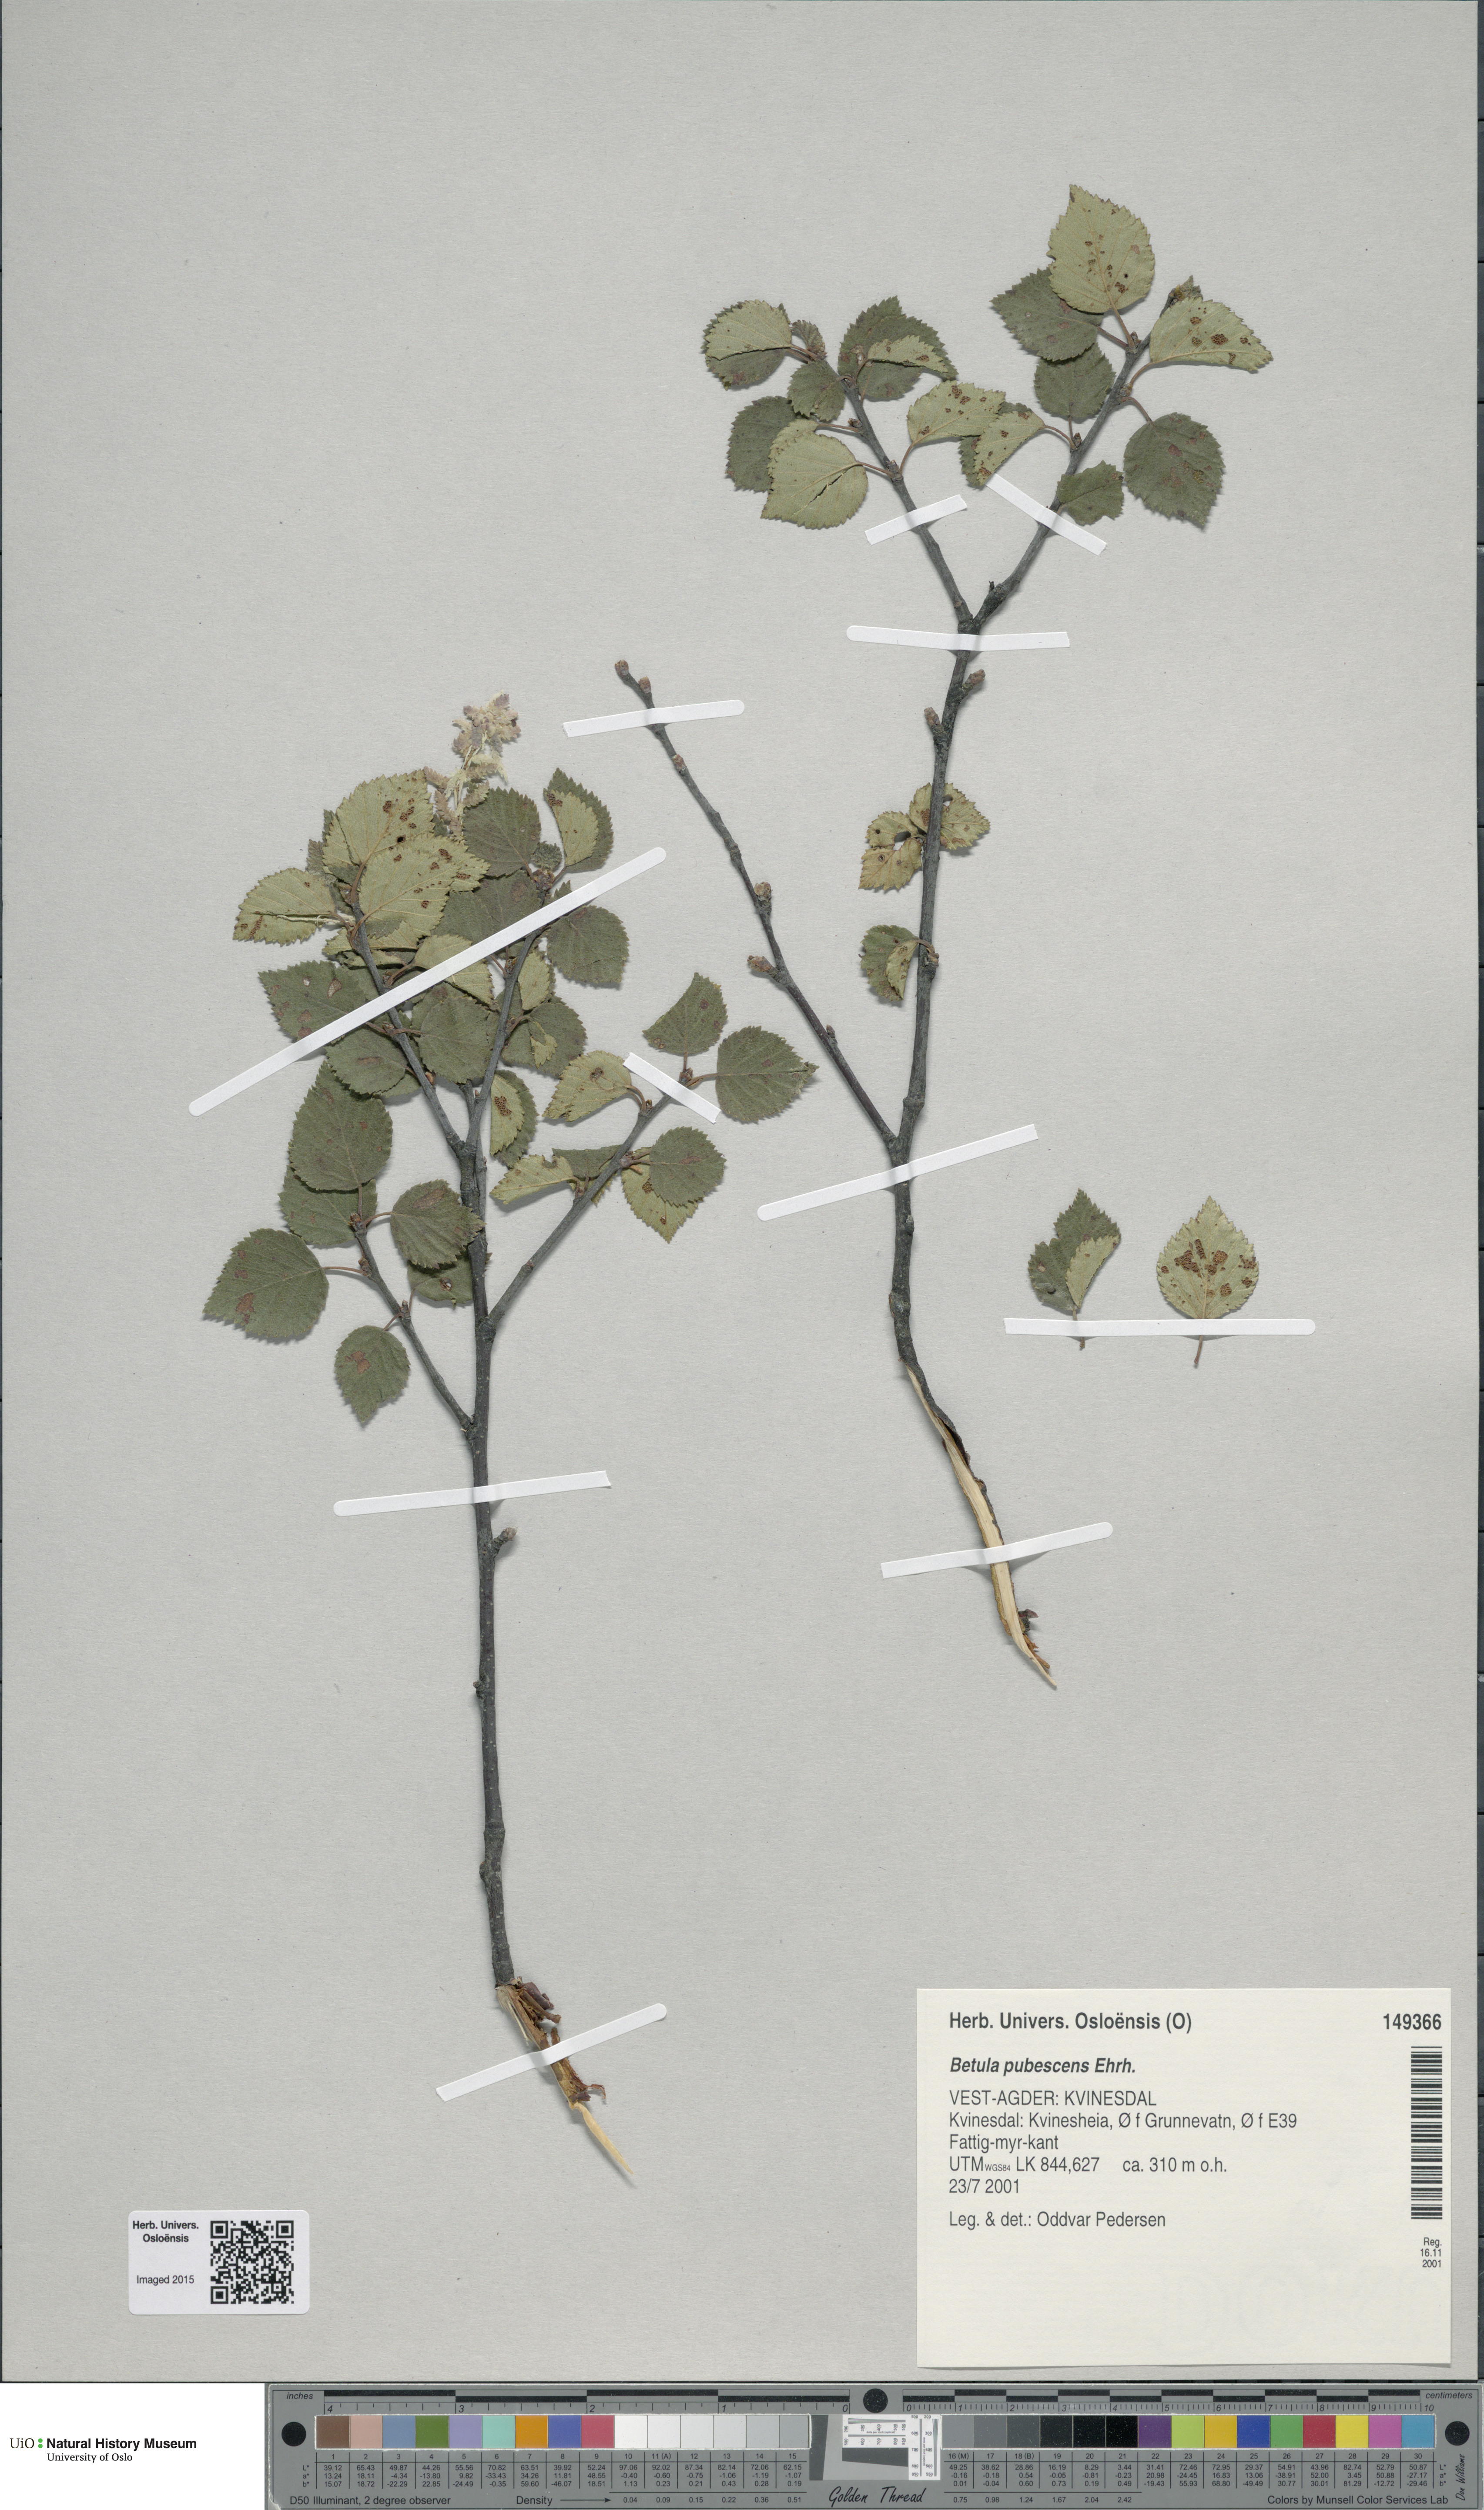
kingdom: Plantae
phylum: Tracheophyta
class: Magnoliopsida
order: Fagales
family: Betulaceae
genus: Betula
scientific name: Betula pubescens
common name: Downy birch
